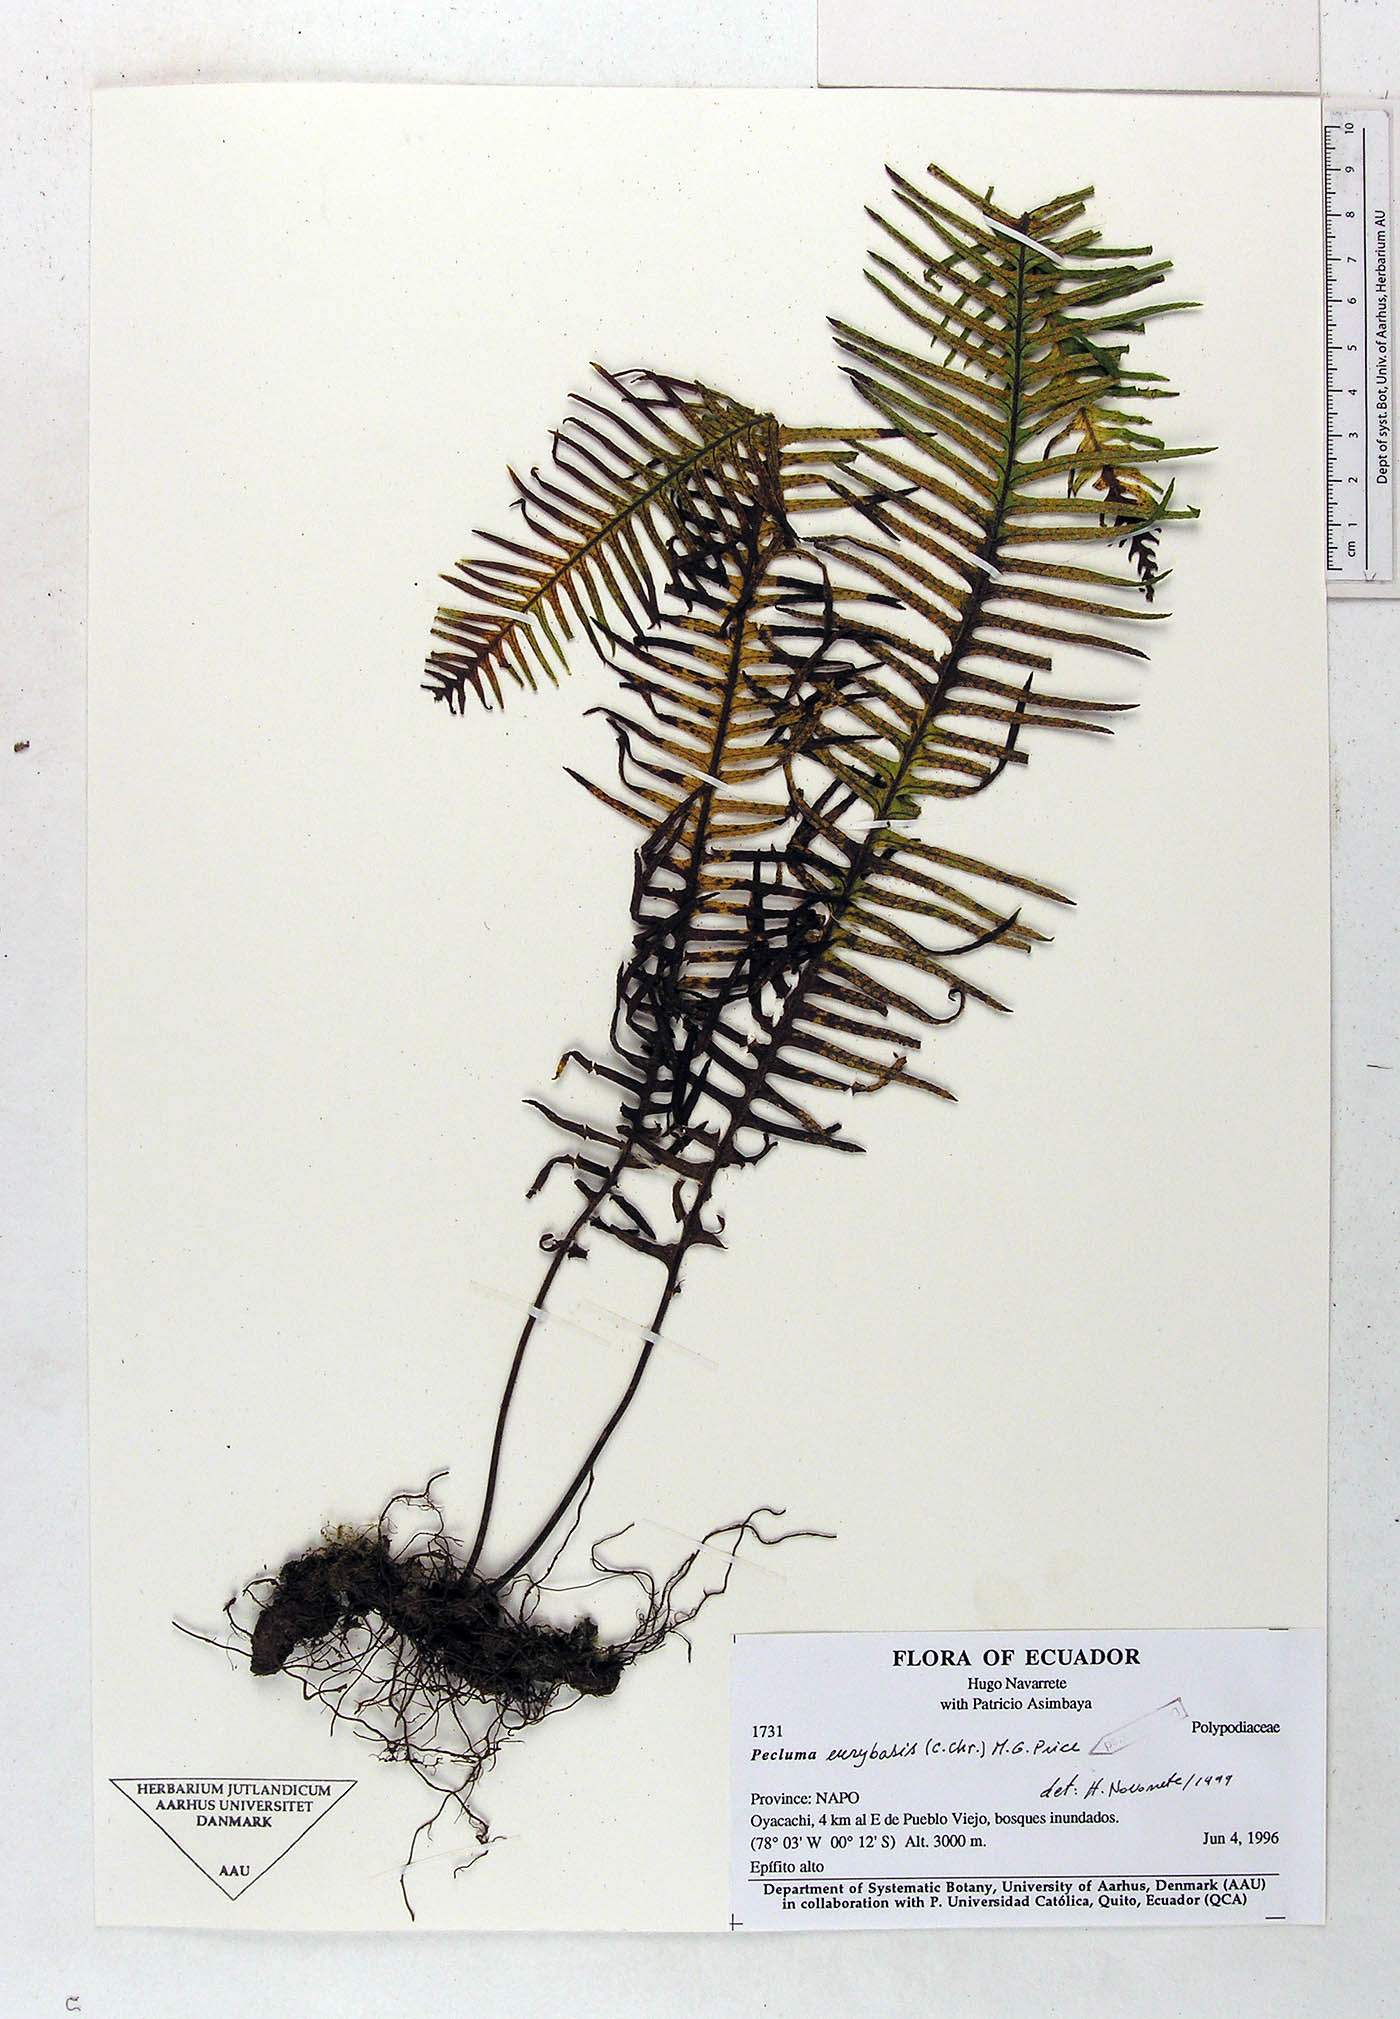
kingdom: Plantae
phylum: Tracheophyta
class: Polypodiopsida
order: Polypodiales
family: Polypodiaceae
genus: Pecluma
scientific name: Pecluma
